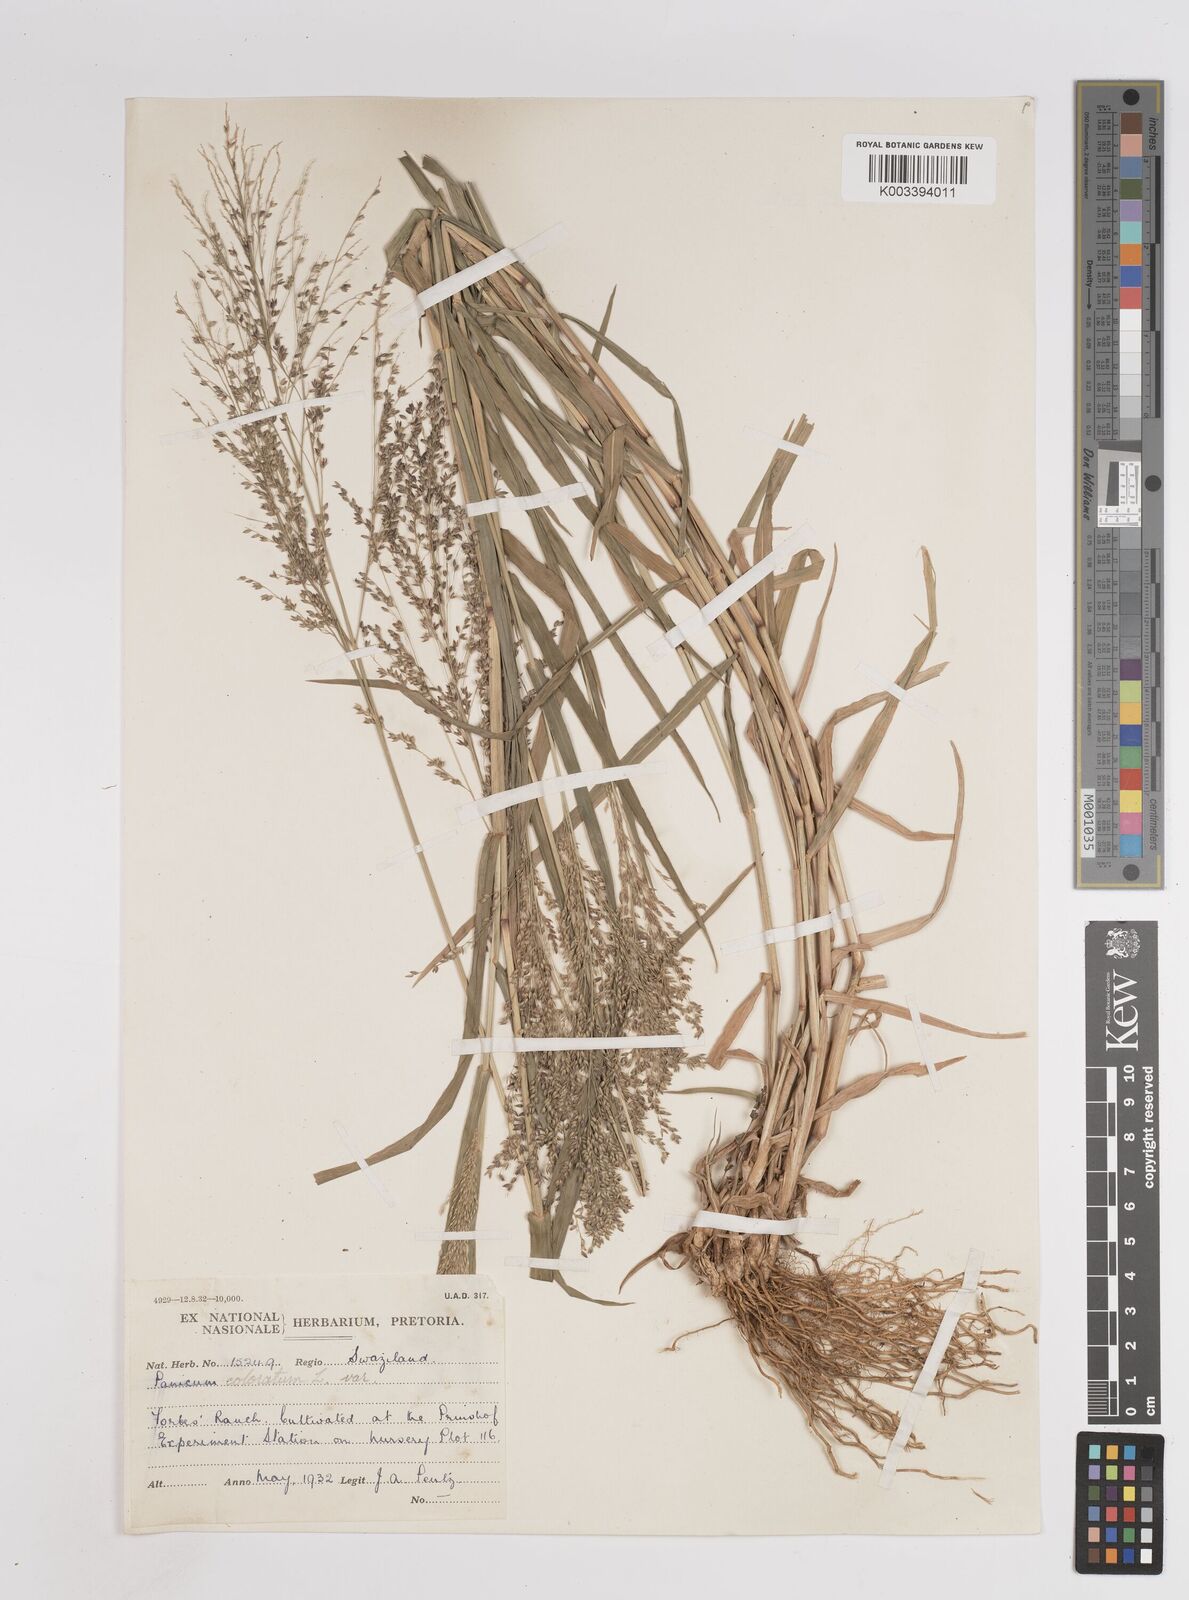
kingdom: Plantae
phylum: Tracheophyta
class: Liliopsida
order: Poales
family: Poaceae
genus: Panicum
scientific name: Panicum coloratum
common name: Kleingrass
